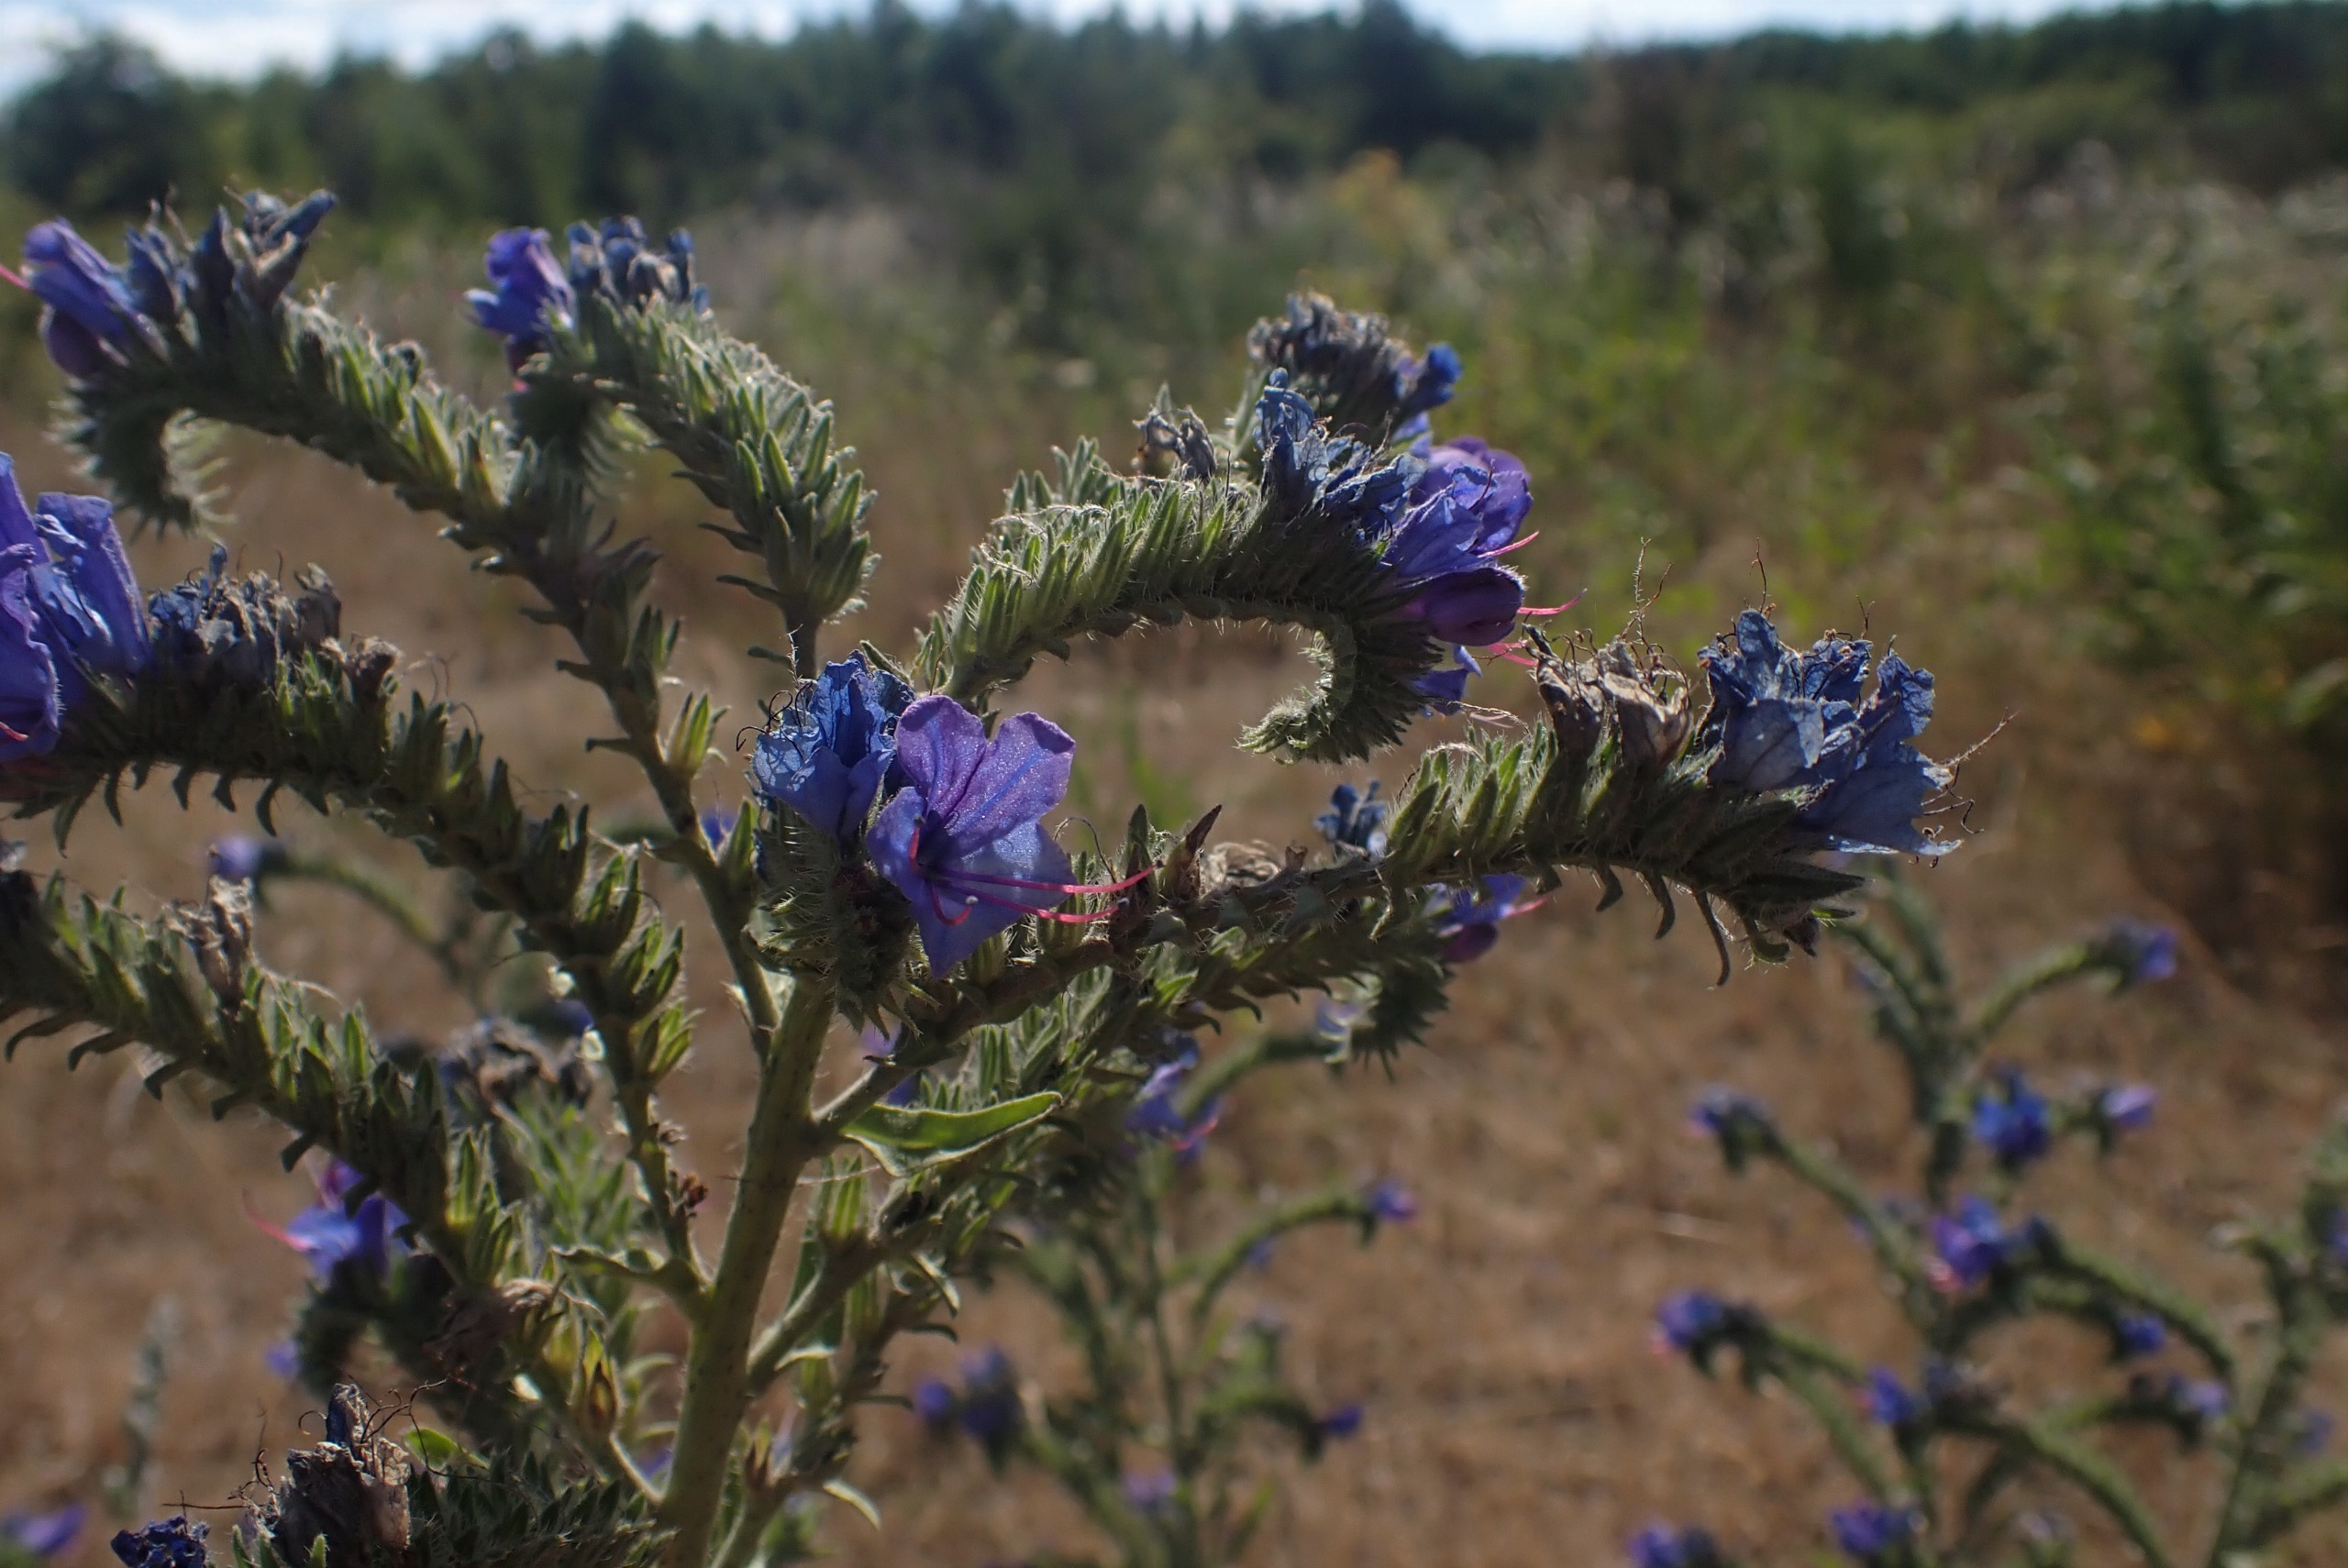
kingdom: Plantae
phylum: Tracheophyta
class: Magnoliopsida
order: Boraginales
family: Boraginaceae
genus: Echium
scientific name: Echium vulgare
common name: Slangehoved
